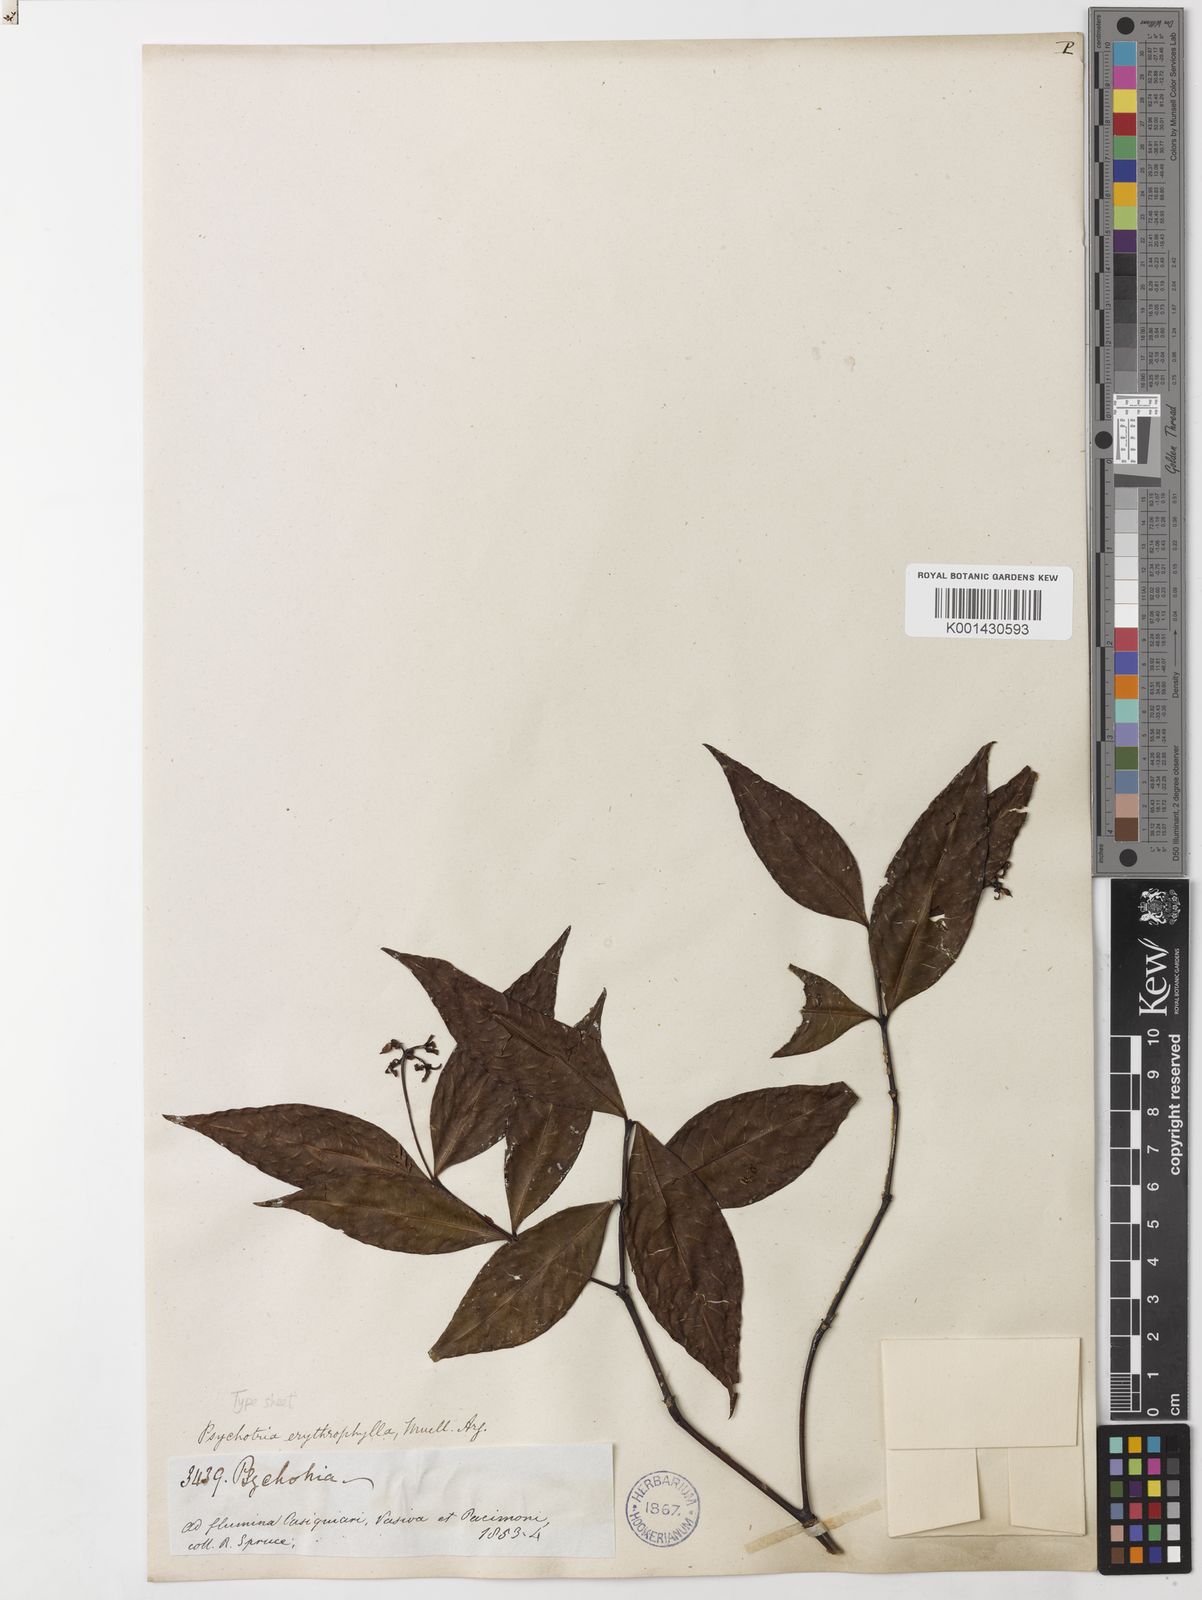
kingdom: Plantae
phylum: Tracheophyta
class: Magnoliopsida
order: Gentianales
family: Rubiaceae
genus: Psychotria
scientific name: Psychotria
